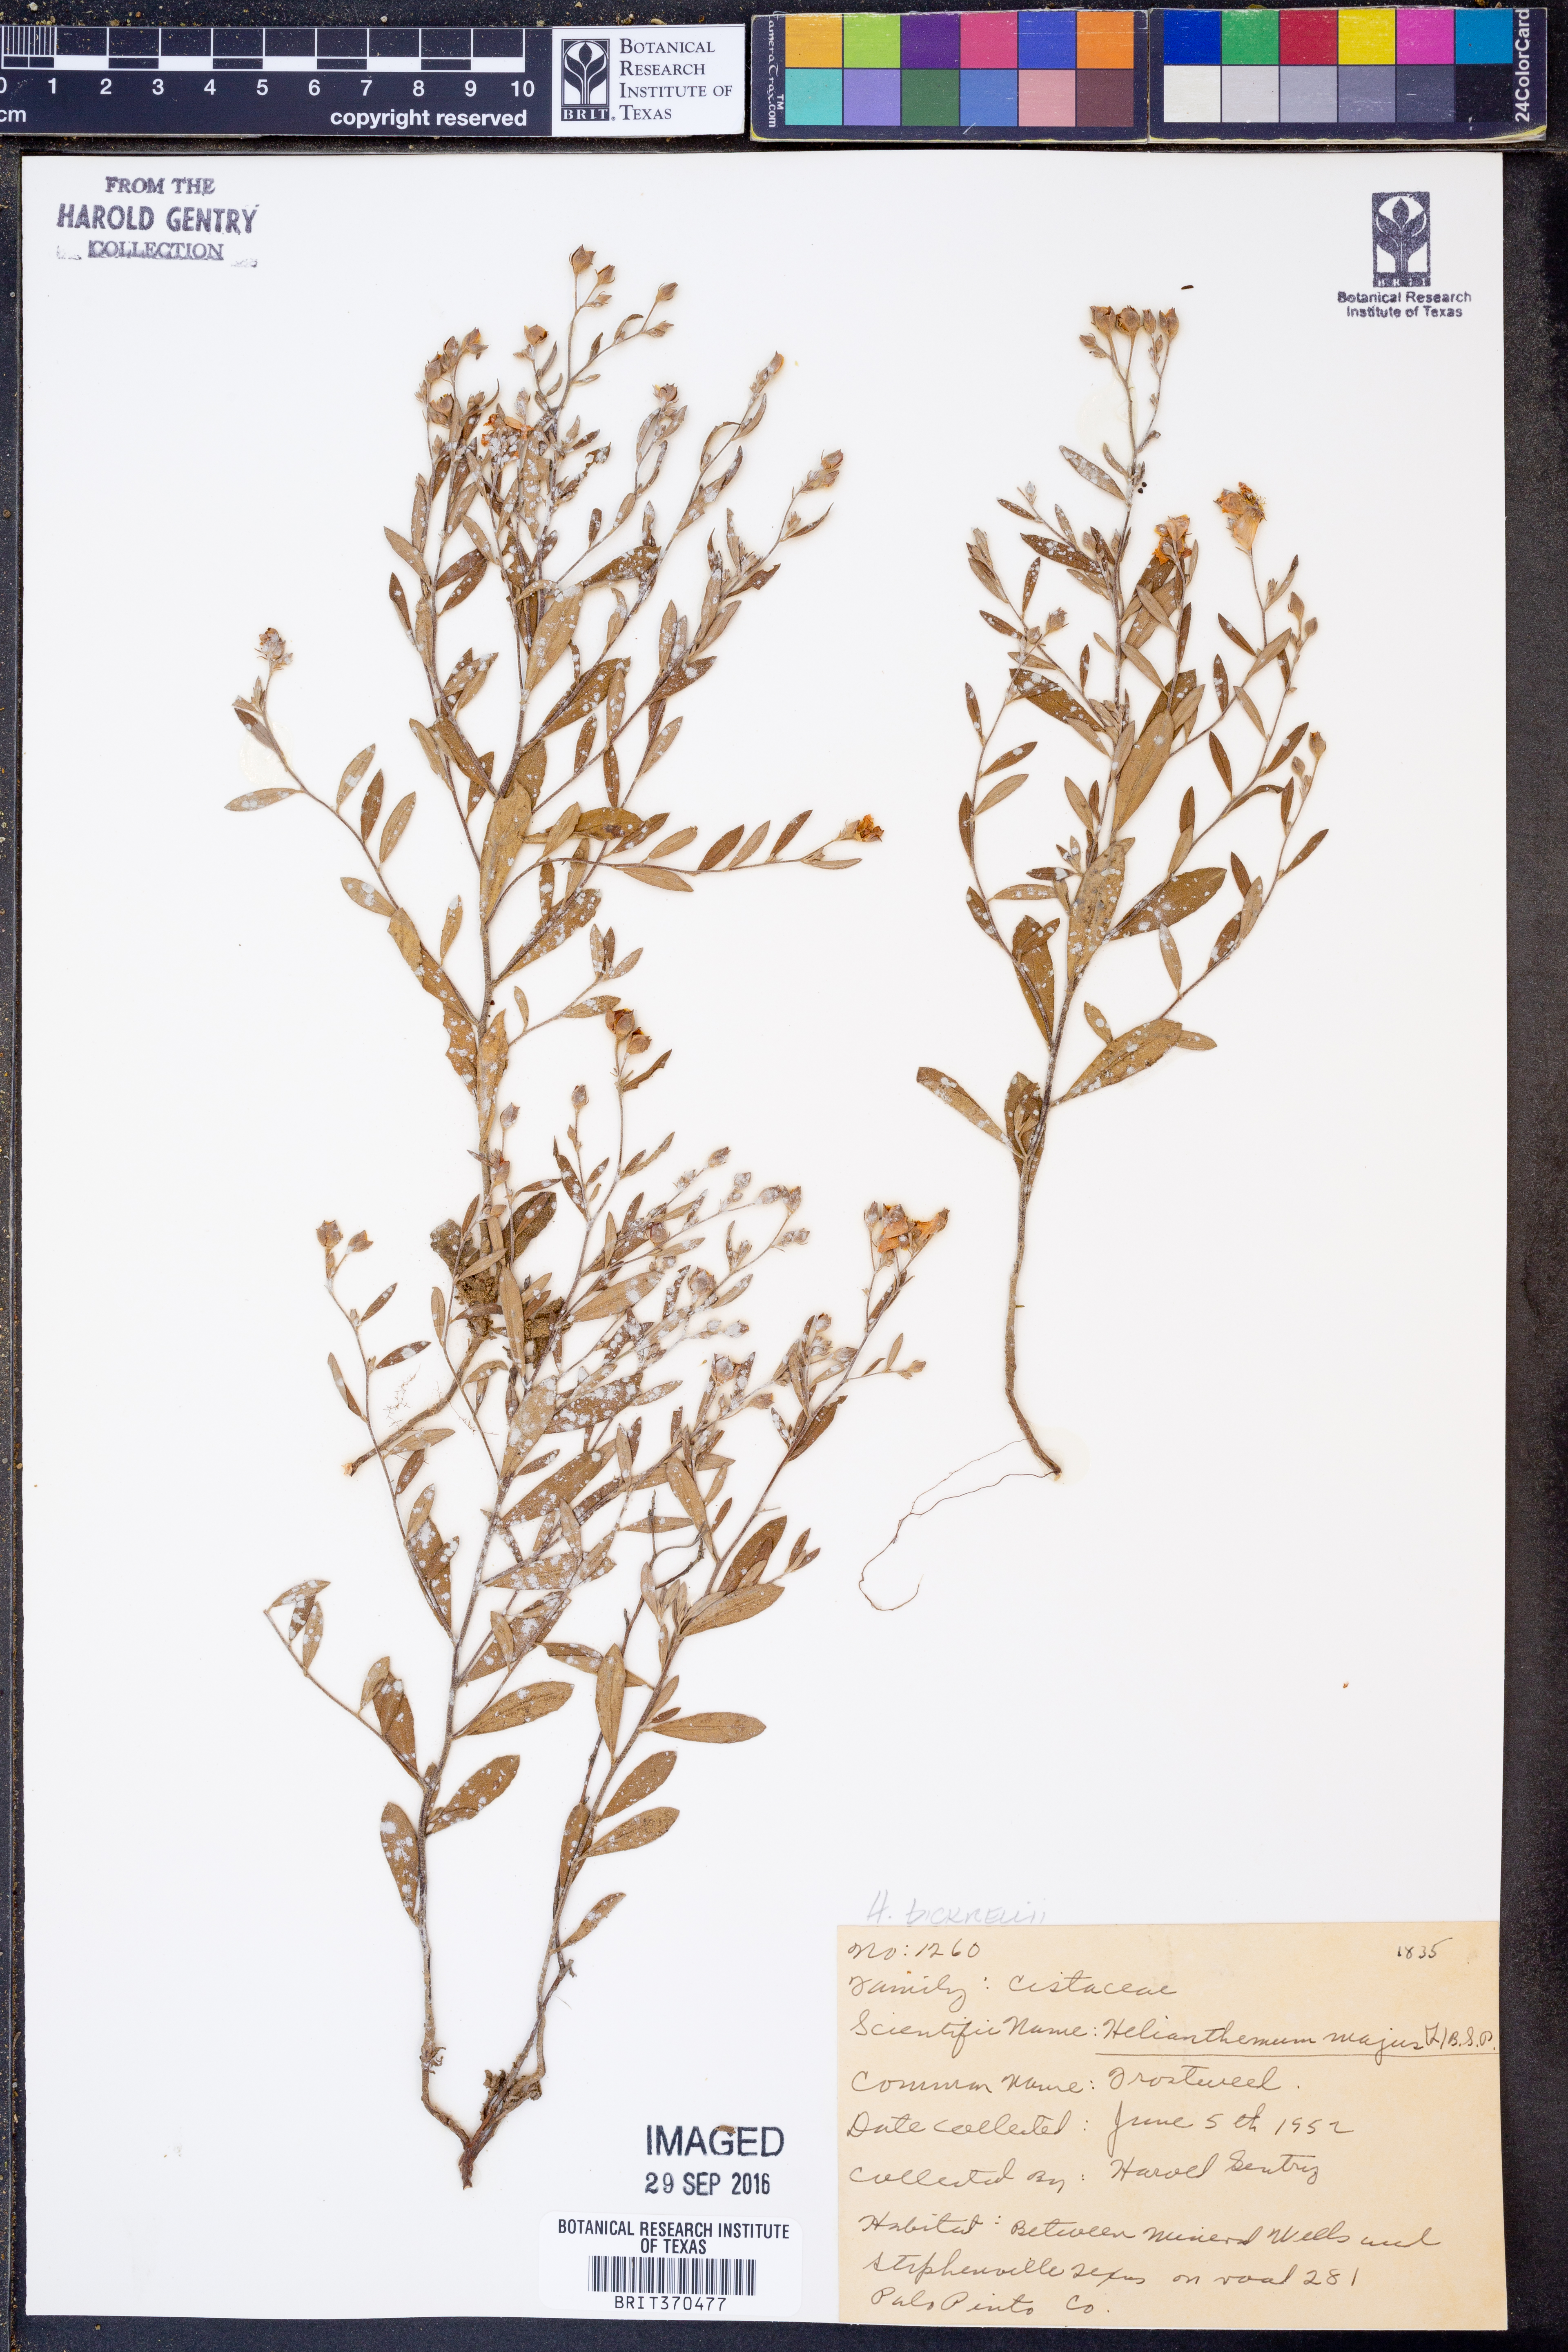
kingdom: Plantae
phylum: Tracheophyta
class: Magnoliopsida
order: Malvales
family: Cistaceae
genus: Crocanthemum
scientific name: Crocanthemum bicknellii
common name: Hoary frostweed
